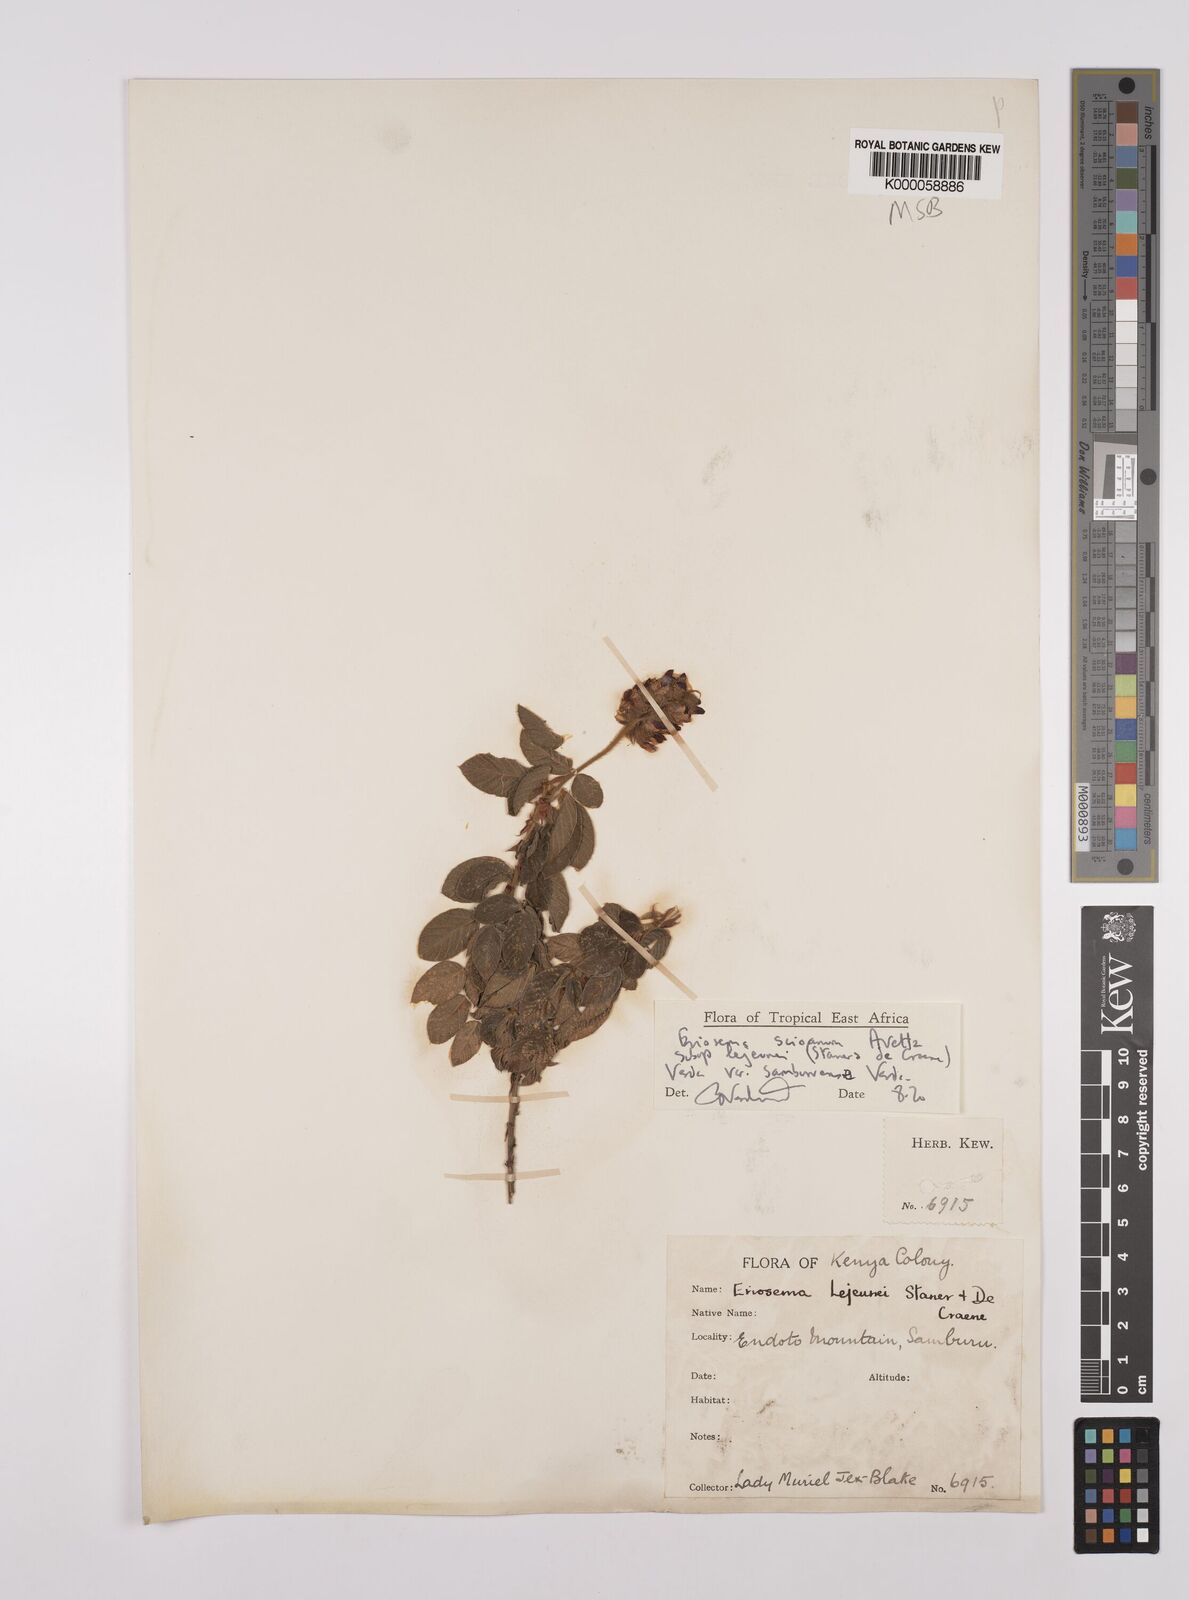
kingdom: Plantae
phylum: Tracheophyta
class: Magnoliopsida
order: Fabales
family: Fabaceae
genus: Eriosema
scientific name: Eriosema scioanum
